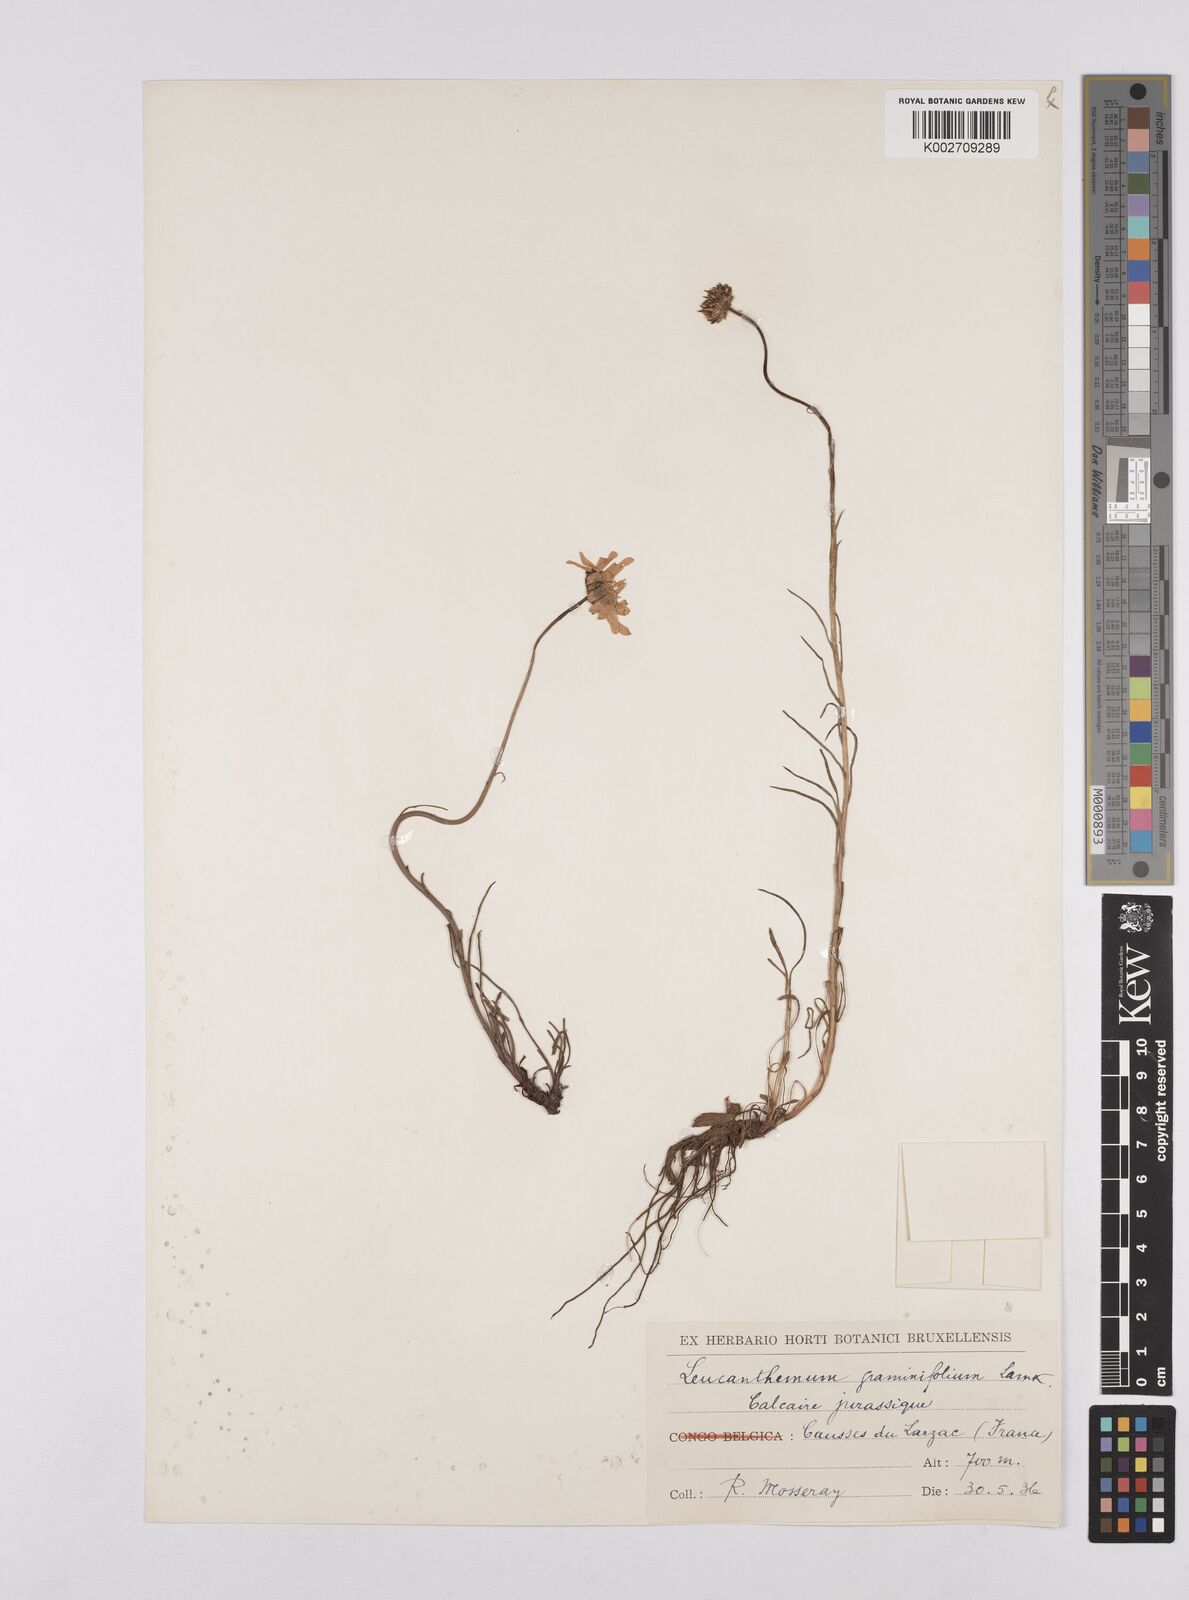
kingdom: Plantae
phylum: Tracheophyta
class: Magnoliopsida
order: Asterales
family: Asteraceae
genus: Leucanthemum
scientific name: Leucanthemum chloroticum
